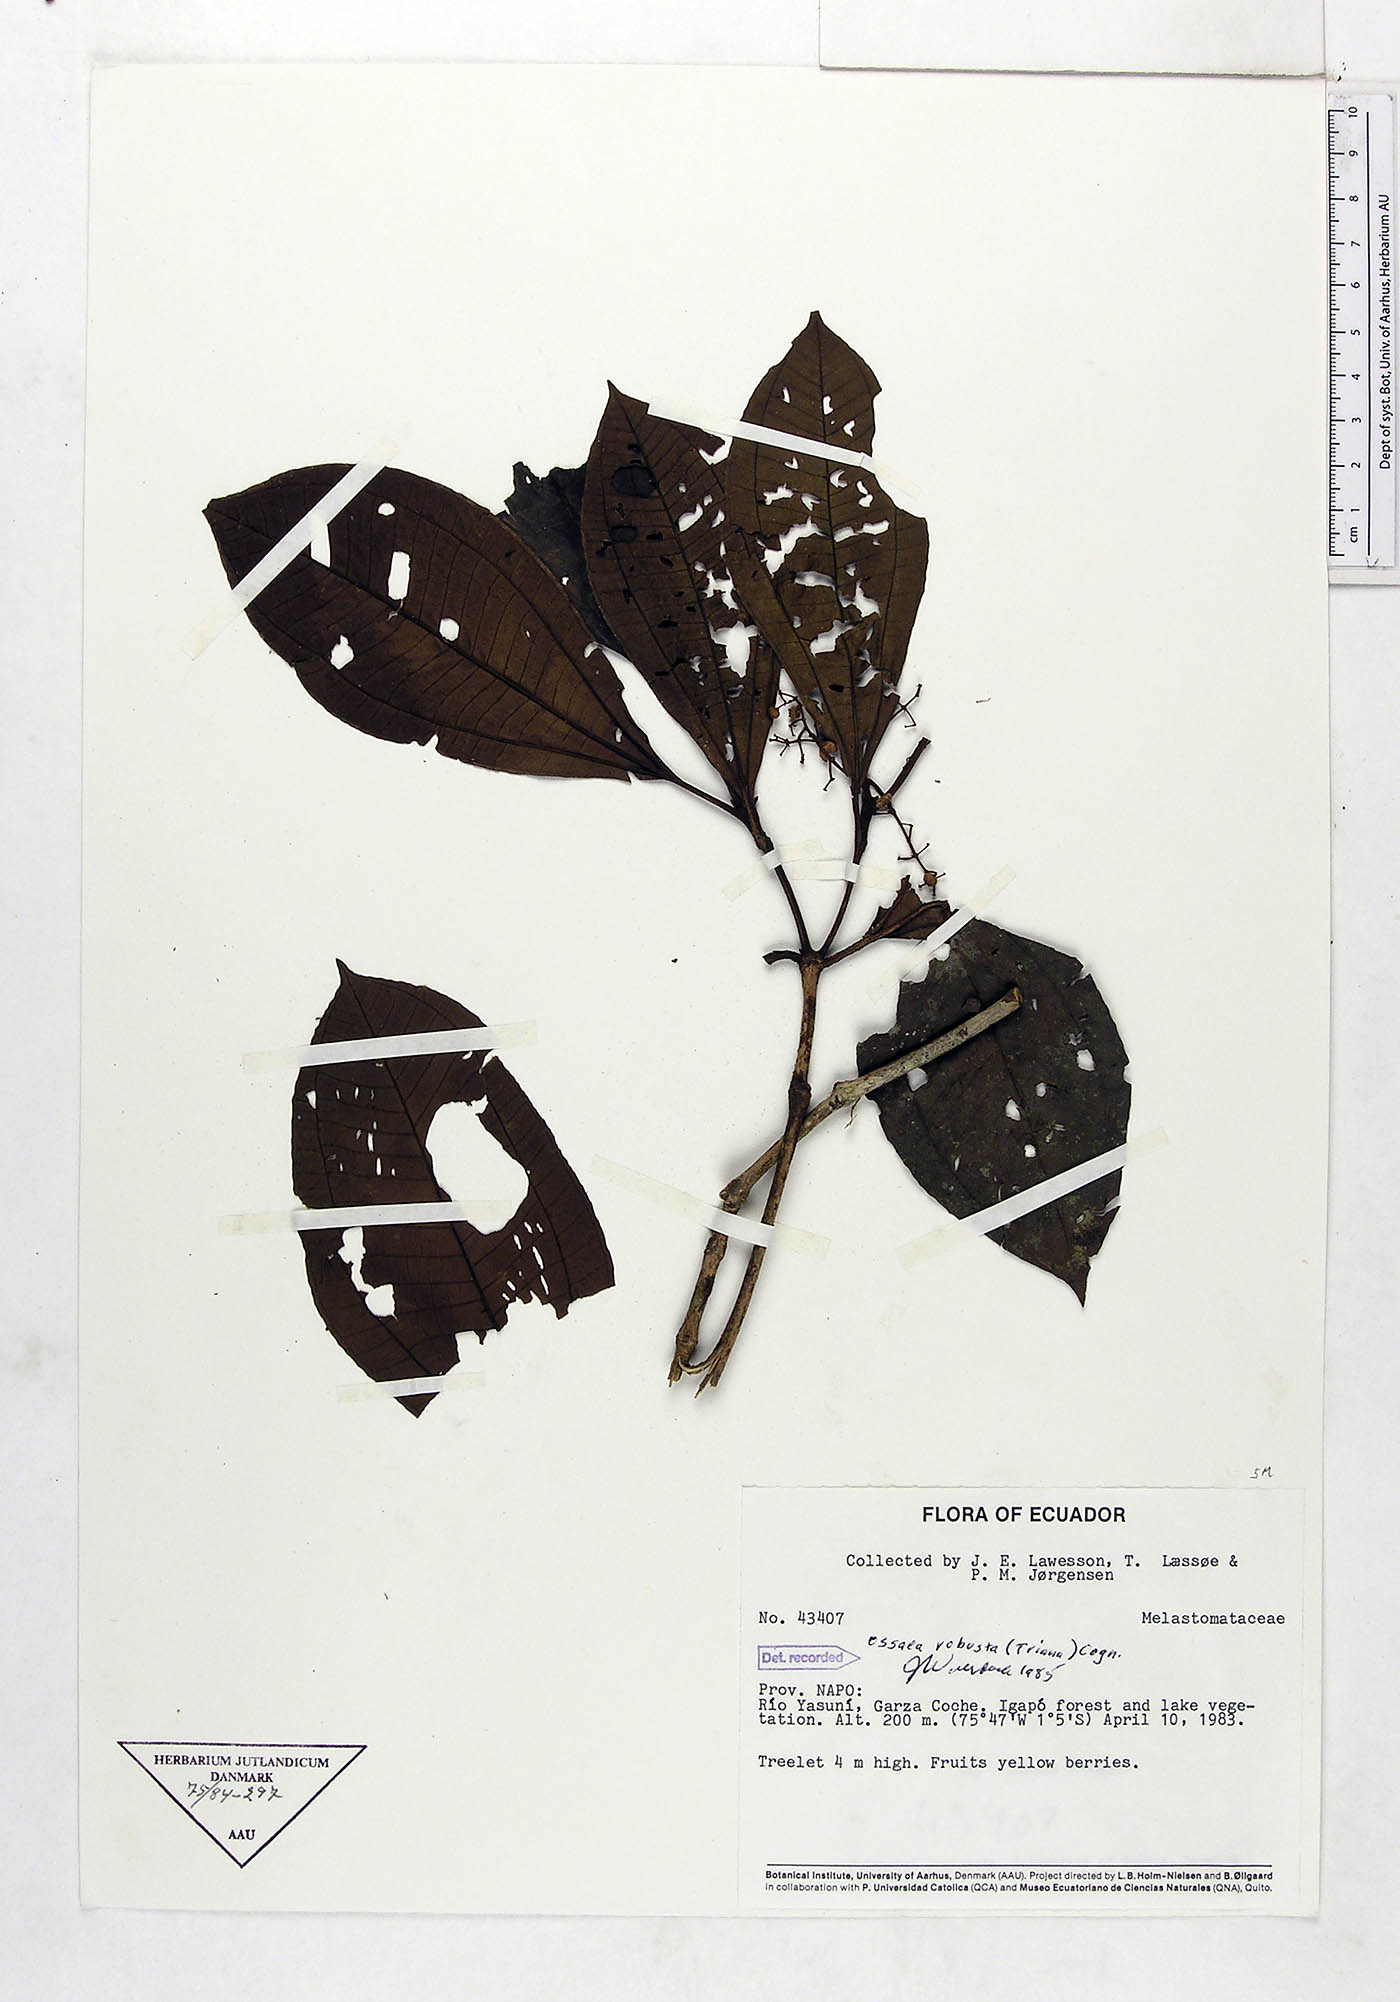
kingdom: Plantae
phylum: Tracheophyta
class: Magnoliopsida
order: Myrtales
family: Melastomataceae
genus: Miconia
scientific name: Miconia variabilis
